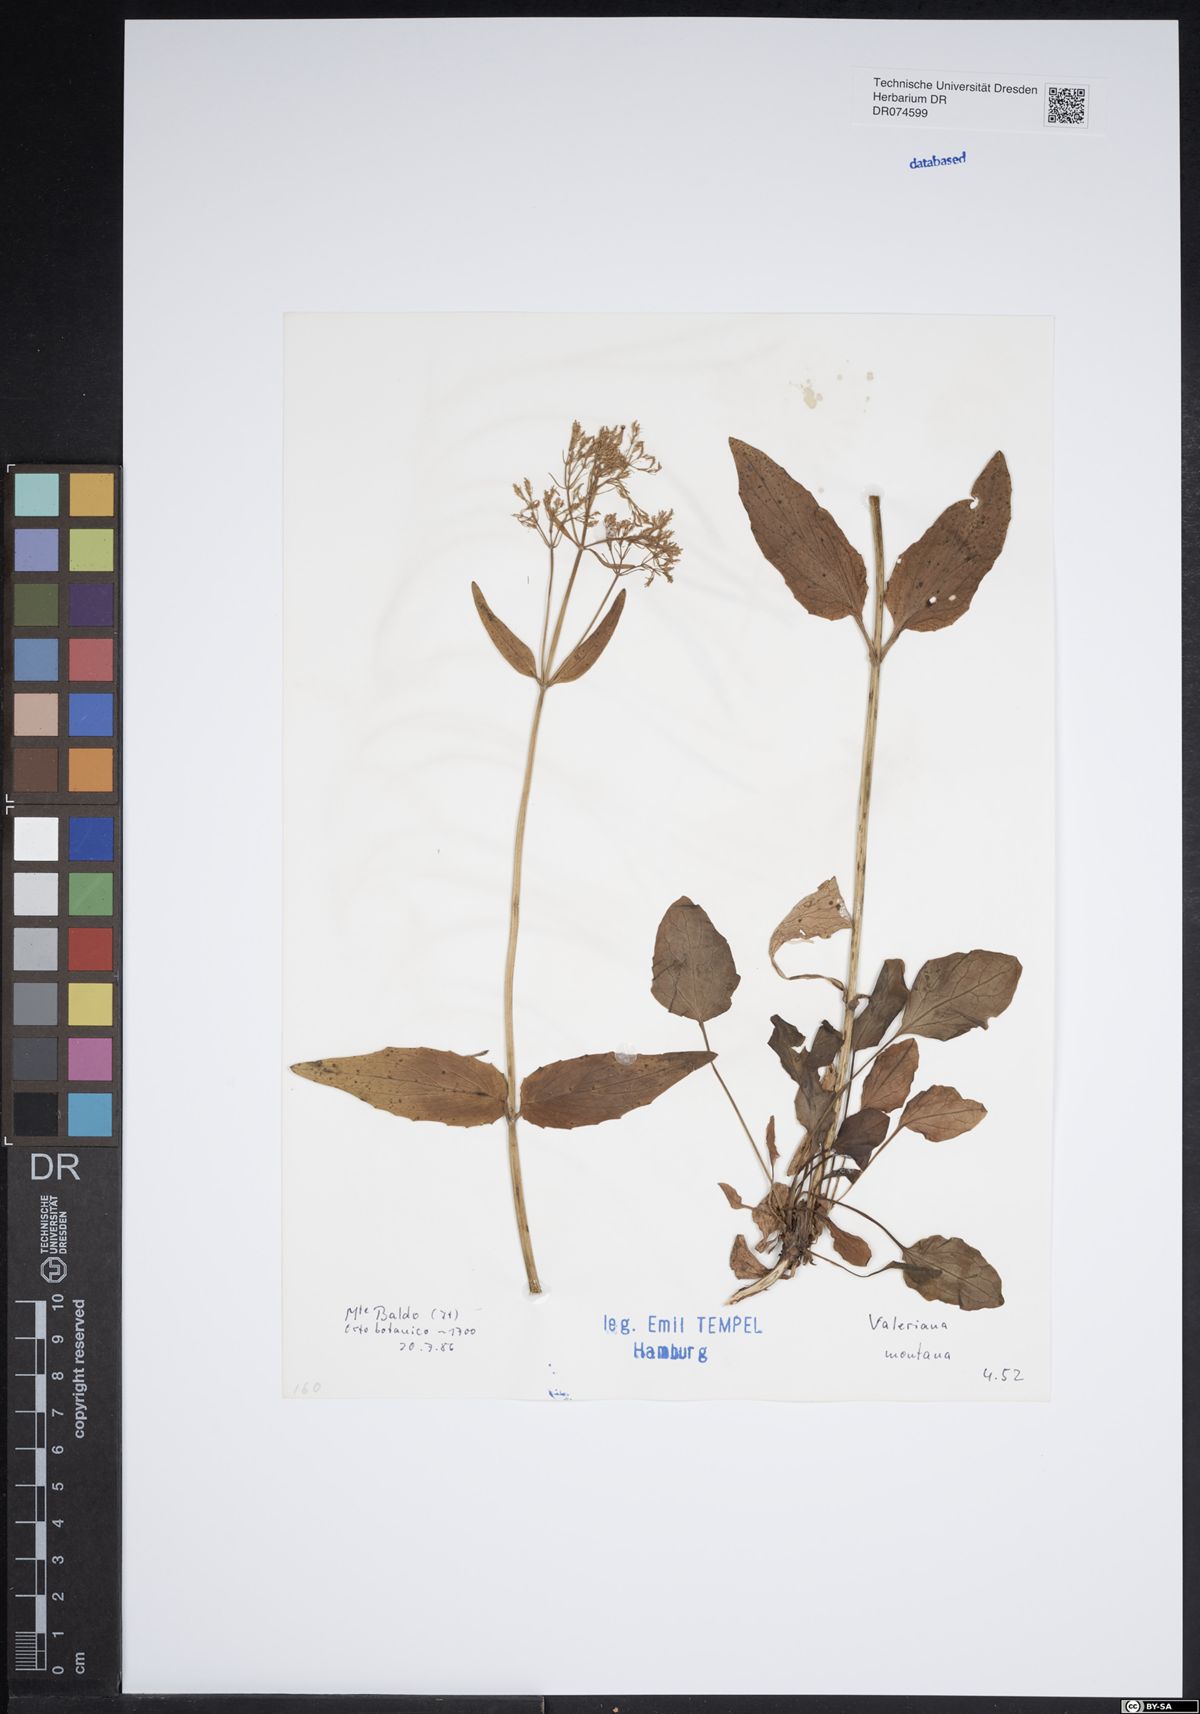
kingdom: Plantae
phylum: Tracheophyta
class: Magnoliopsida
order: Dipsacales
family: Caprifoliaceae
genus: Valeriana
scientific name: Valeriana montana
